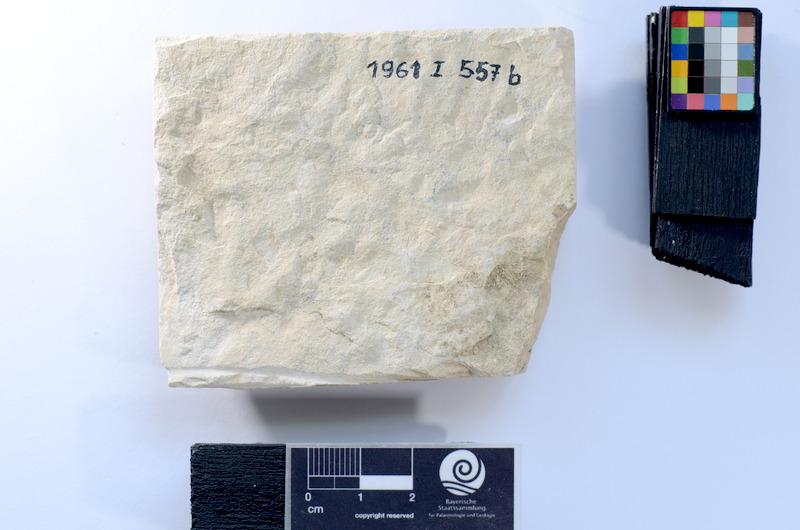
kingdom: Animalia
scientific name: Animalia
